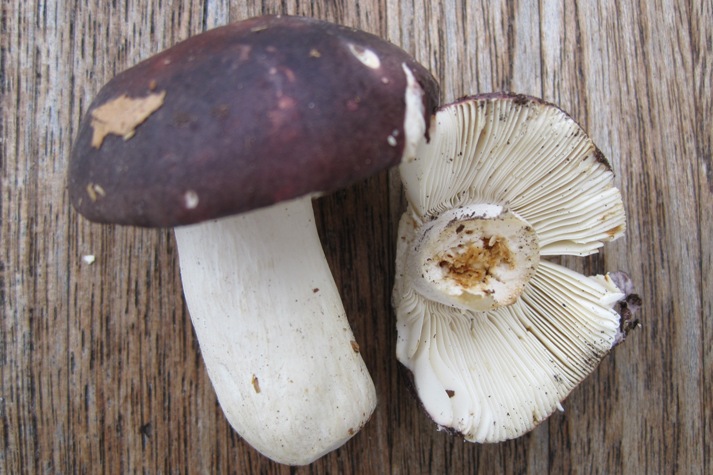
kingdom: Fungi
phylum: Basidiomycota
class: Agaricomycetes
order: Russulales
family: Russulaceae
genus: Russula
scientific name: Russula brunneoviolacea
